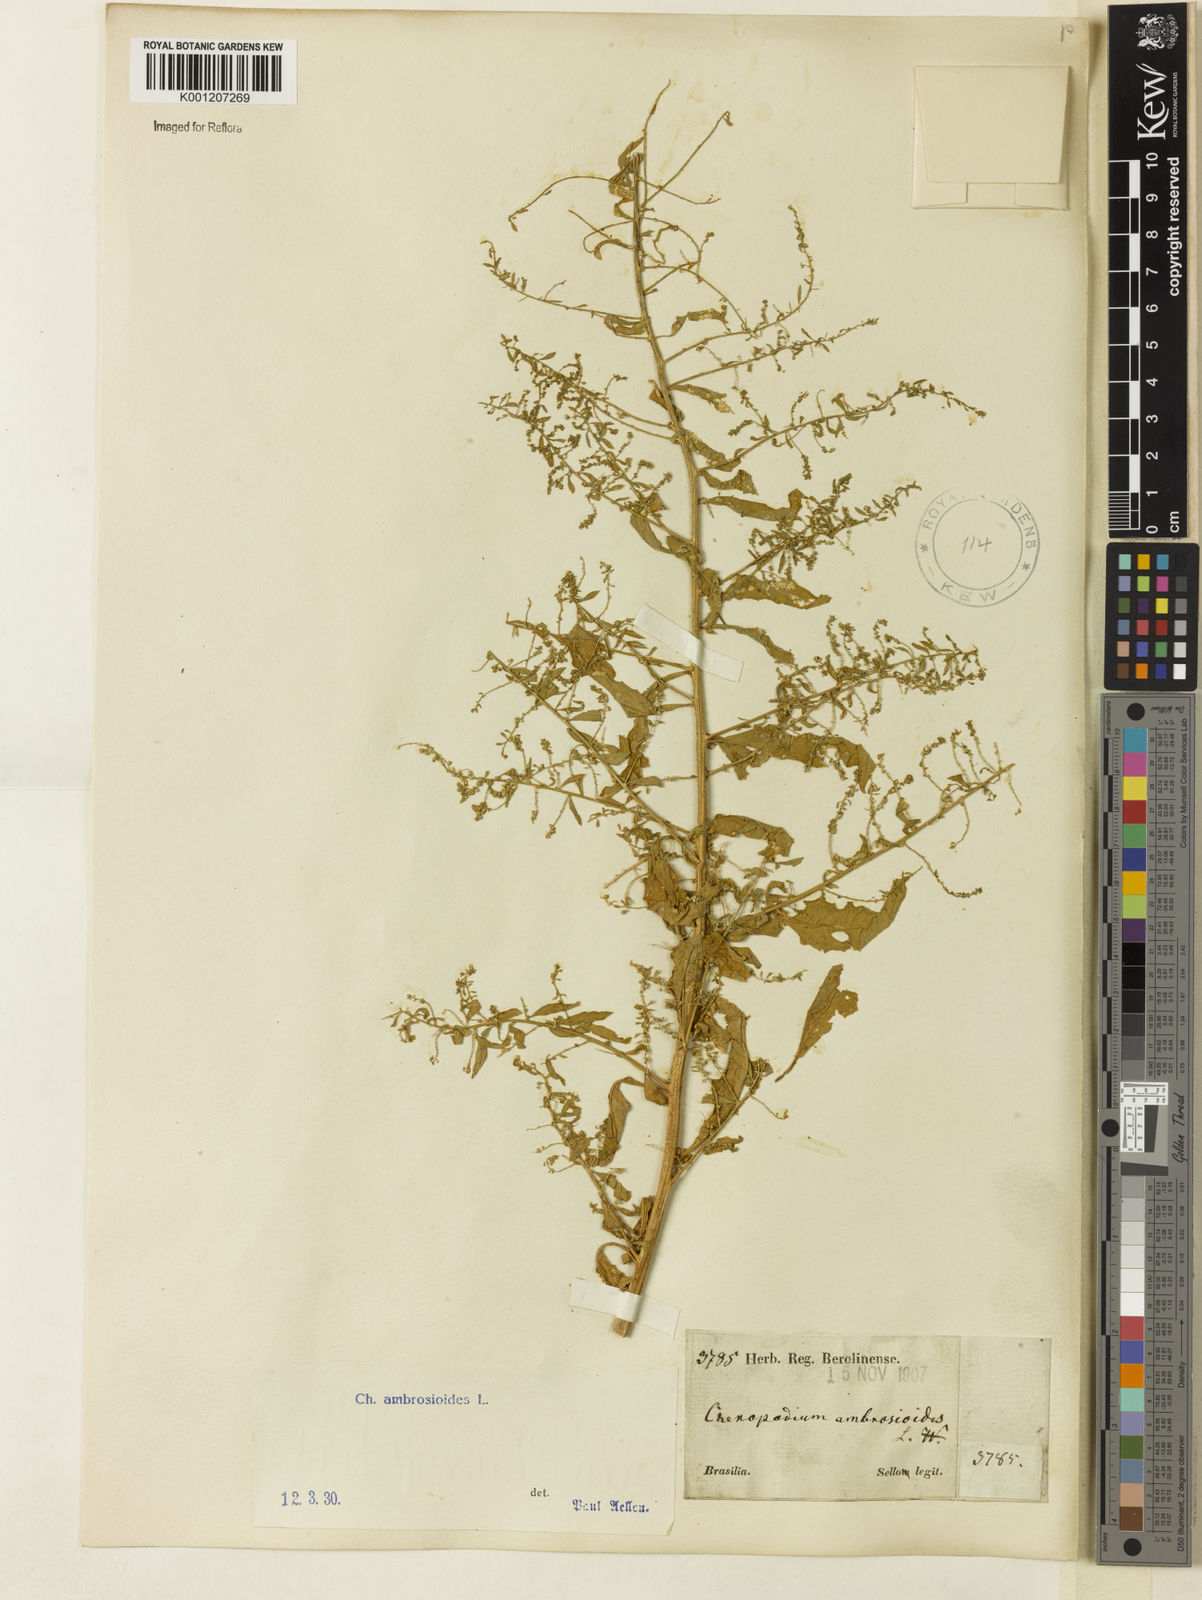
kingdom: Plantae
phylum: Tracheophyta
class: Magnoliopsida
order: Caryophyllales
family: Amaranthaceae
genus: Dysphania
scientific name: Dysphania ambrosioides
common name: Wormseed
